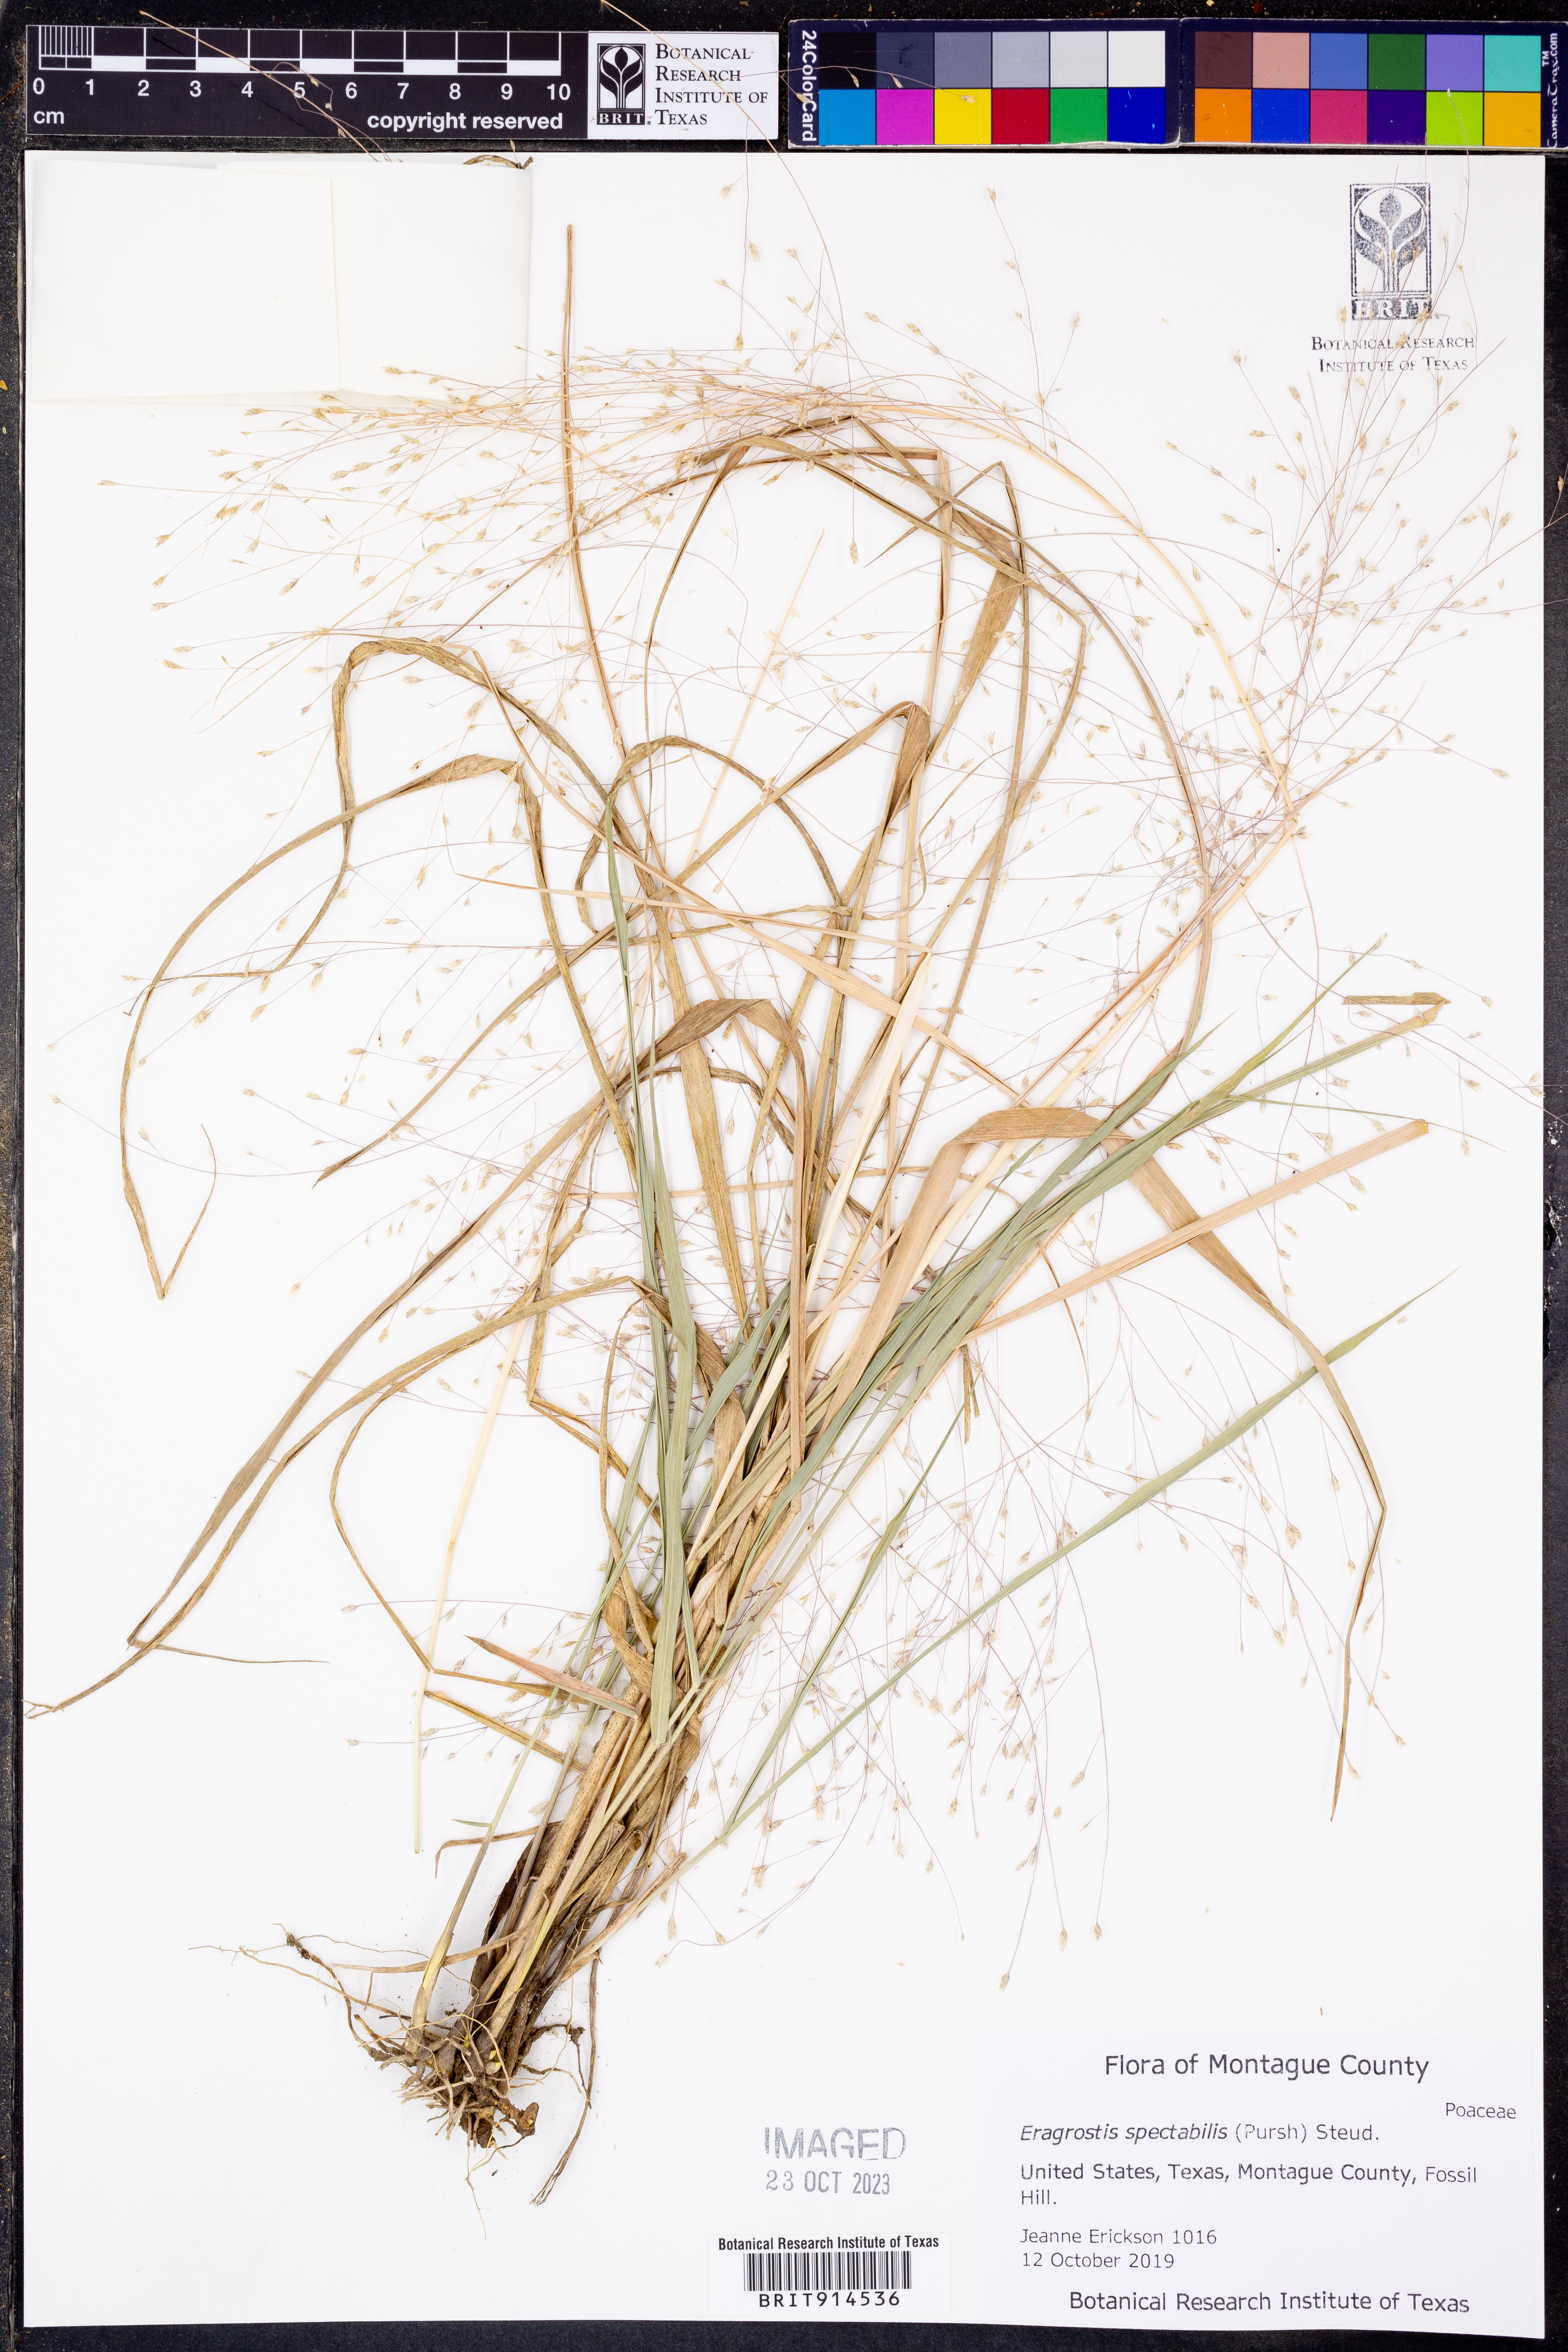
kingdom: Plantae
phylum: Tracheophyta
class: Liliopsida
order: Poales
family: Poaceae
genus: Eragrostis
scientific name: Eragrostis spectabilis
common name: Petticoat-climber
